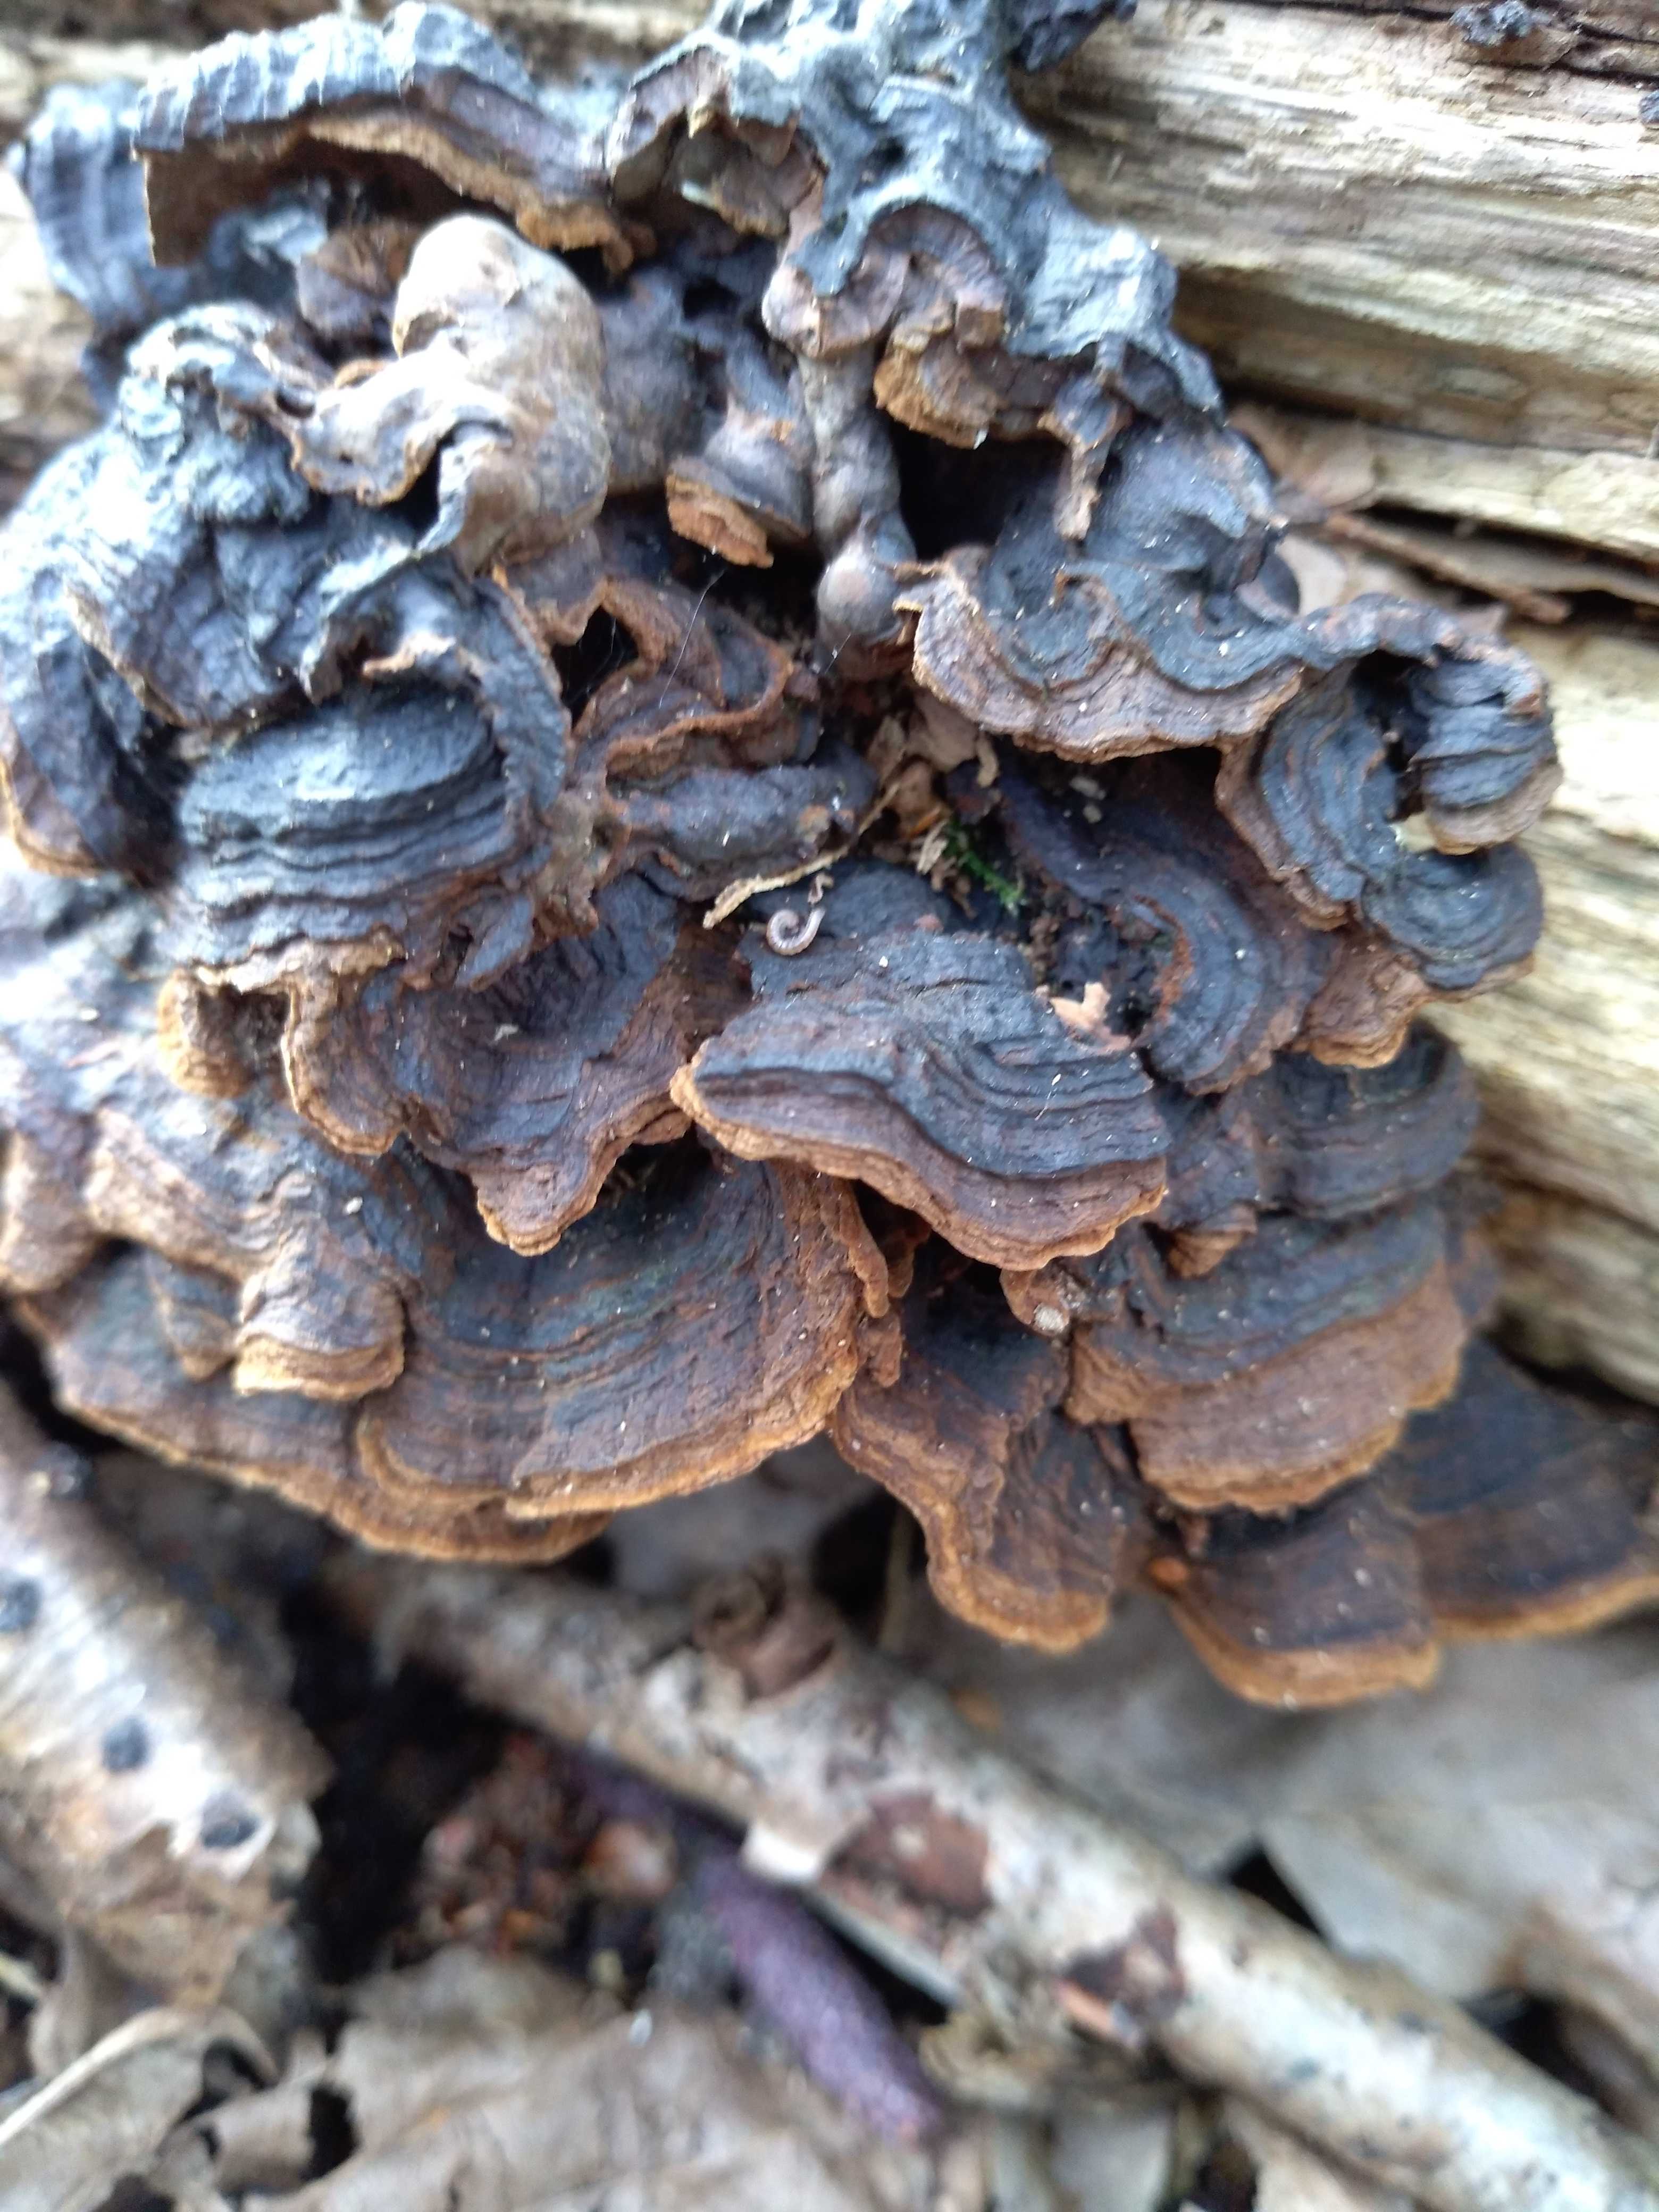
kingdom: Fungi
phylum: Basidiomycota
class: Agaricomycetes
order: Hymenochaetales
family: Hymenochaetaceae
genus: Hymenochaete
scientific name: Hymenochaete rubiginosa
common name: stiv ruslædersvamp
